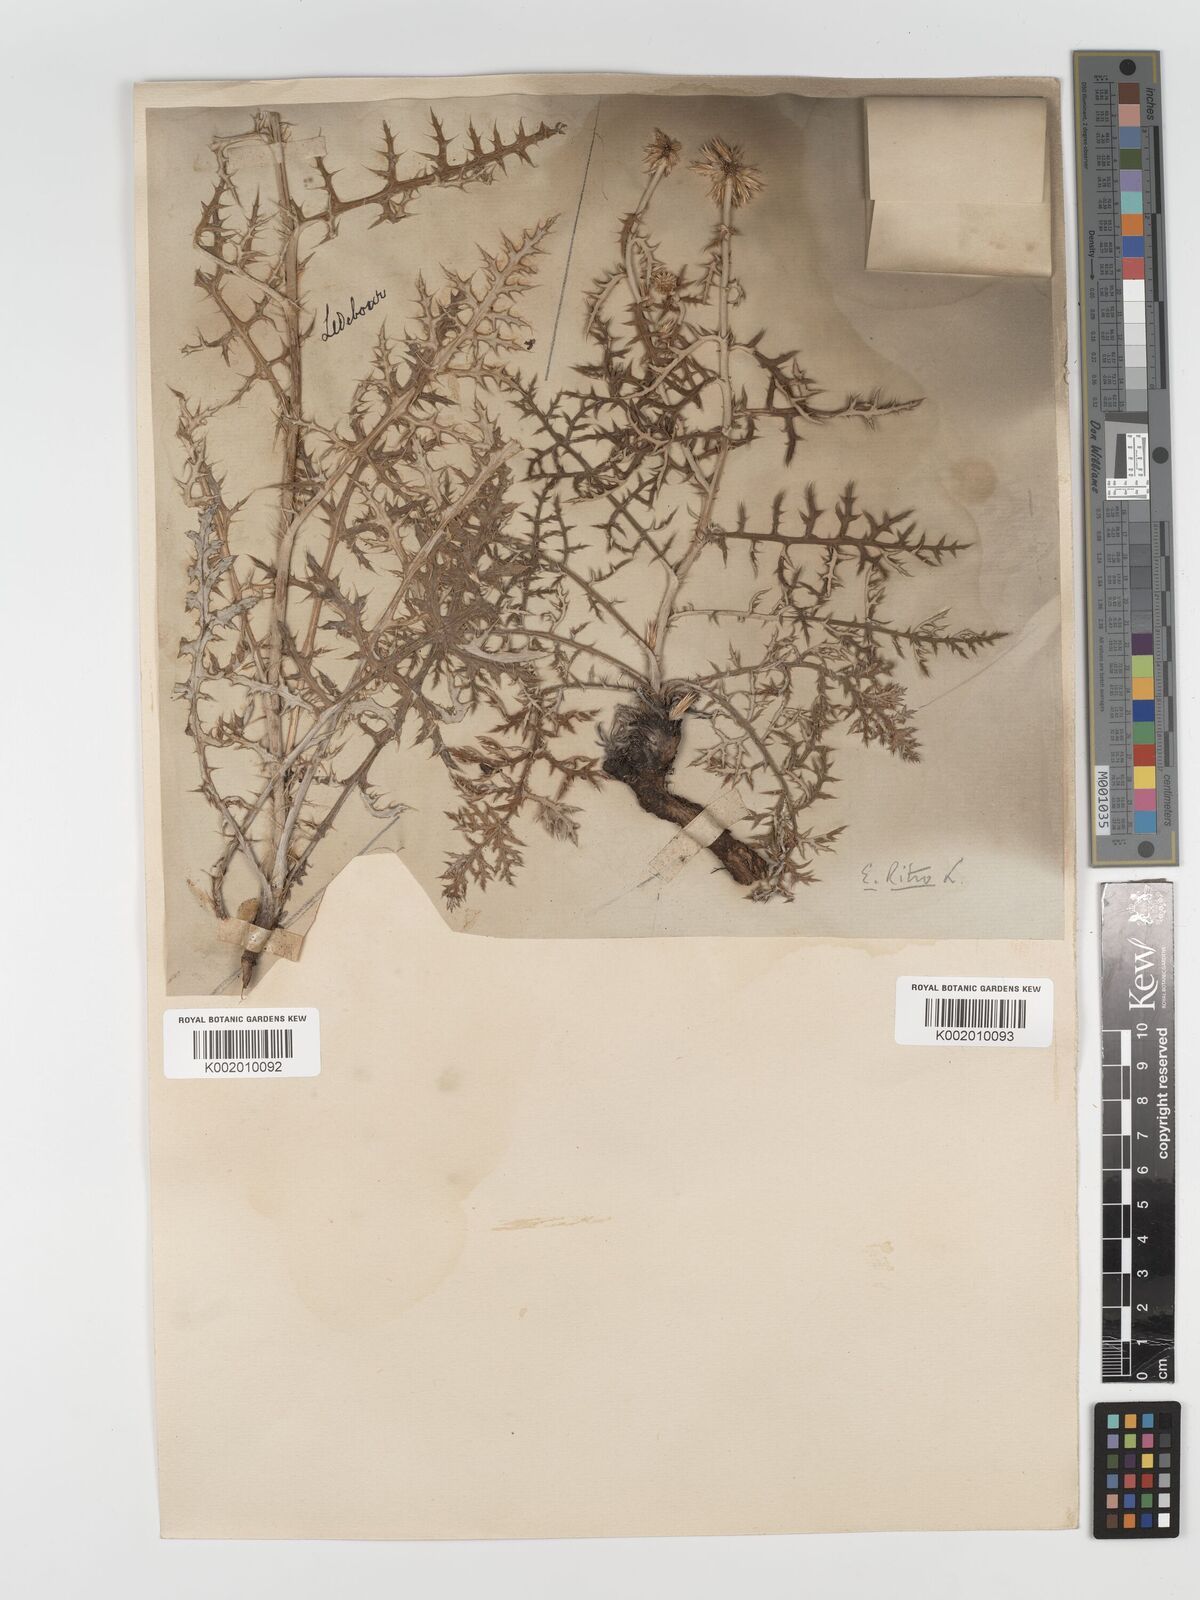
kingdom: Plantae
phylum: Tracheophyta
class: Magnoliopsida
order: Asterales
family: Asteraceae
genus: Echinops
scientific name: Echinops bannaticus
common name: Blue globe-thistle
